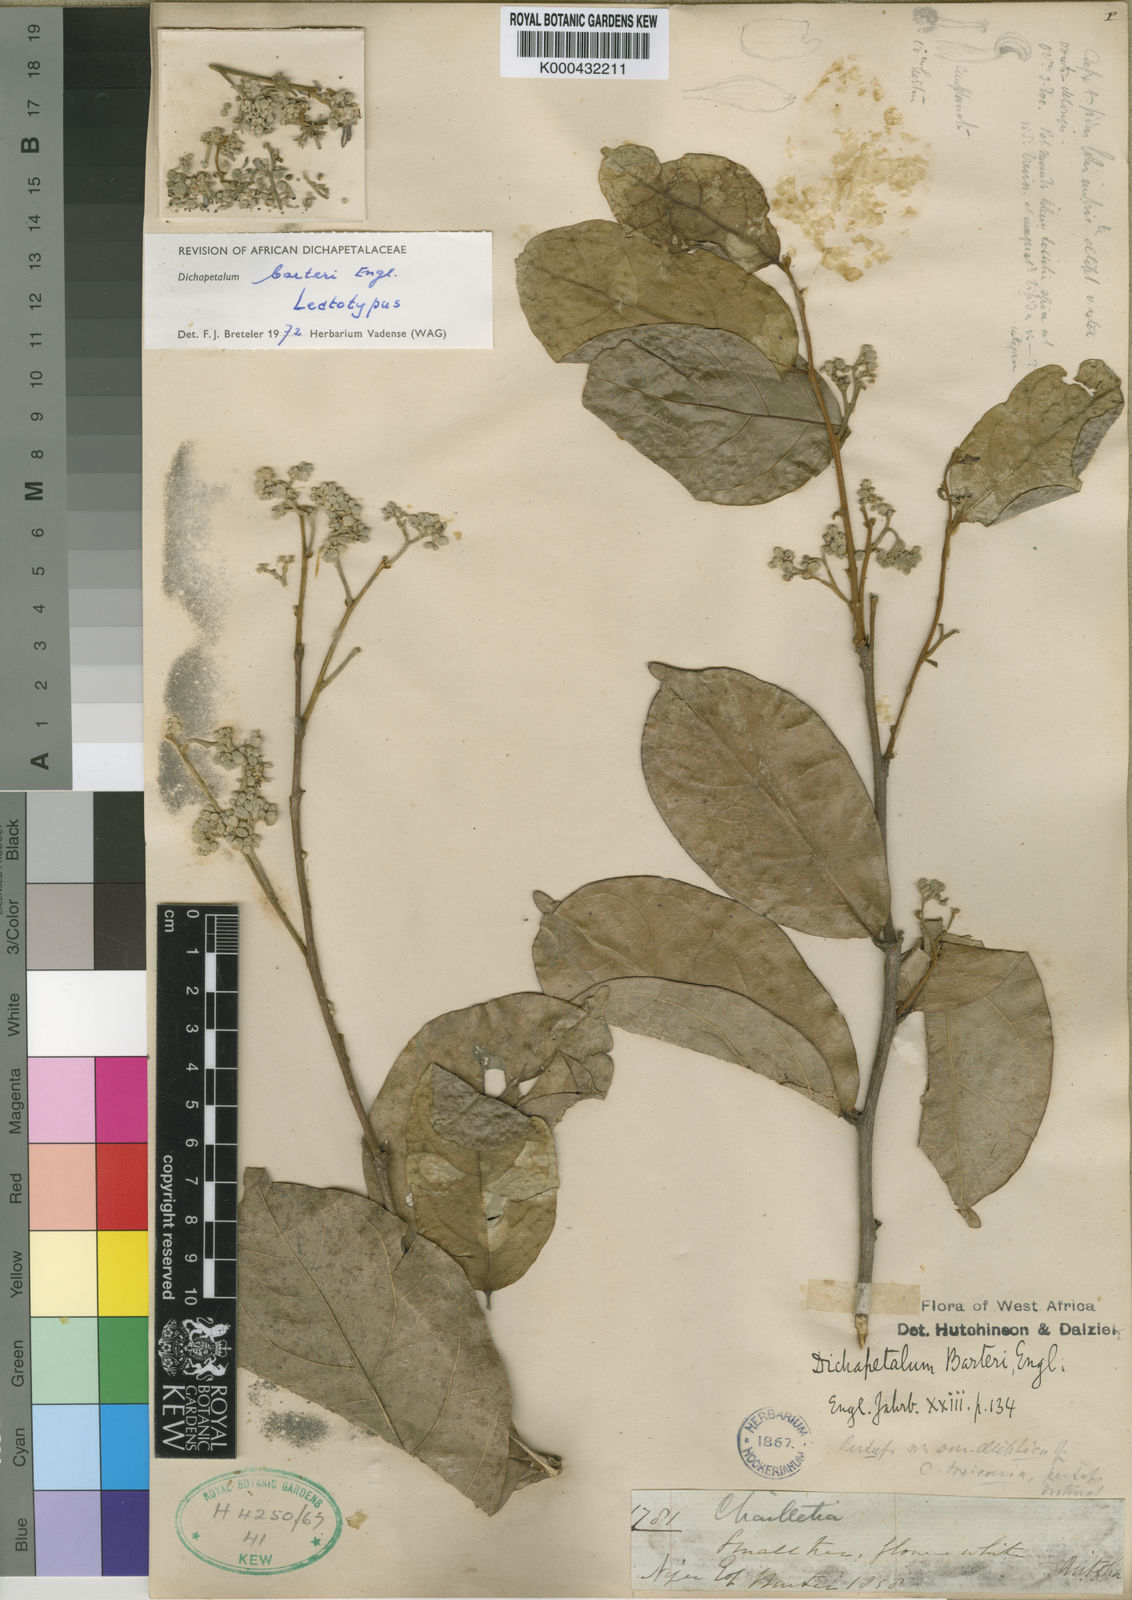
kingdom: Plantae
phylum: Tracheophyta
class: Magnoliopsida
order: Malpighiales
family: Dichapetalaceae
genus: Dichapetalum
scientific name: Dichapetalum barteri
